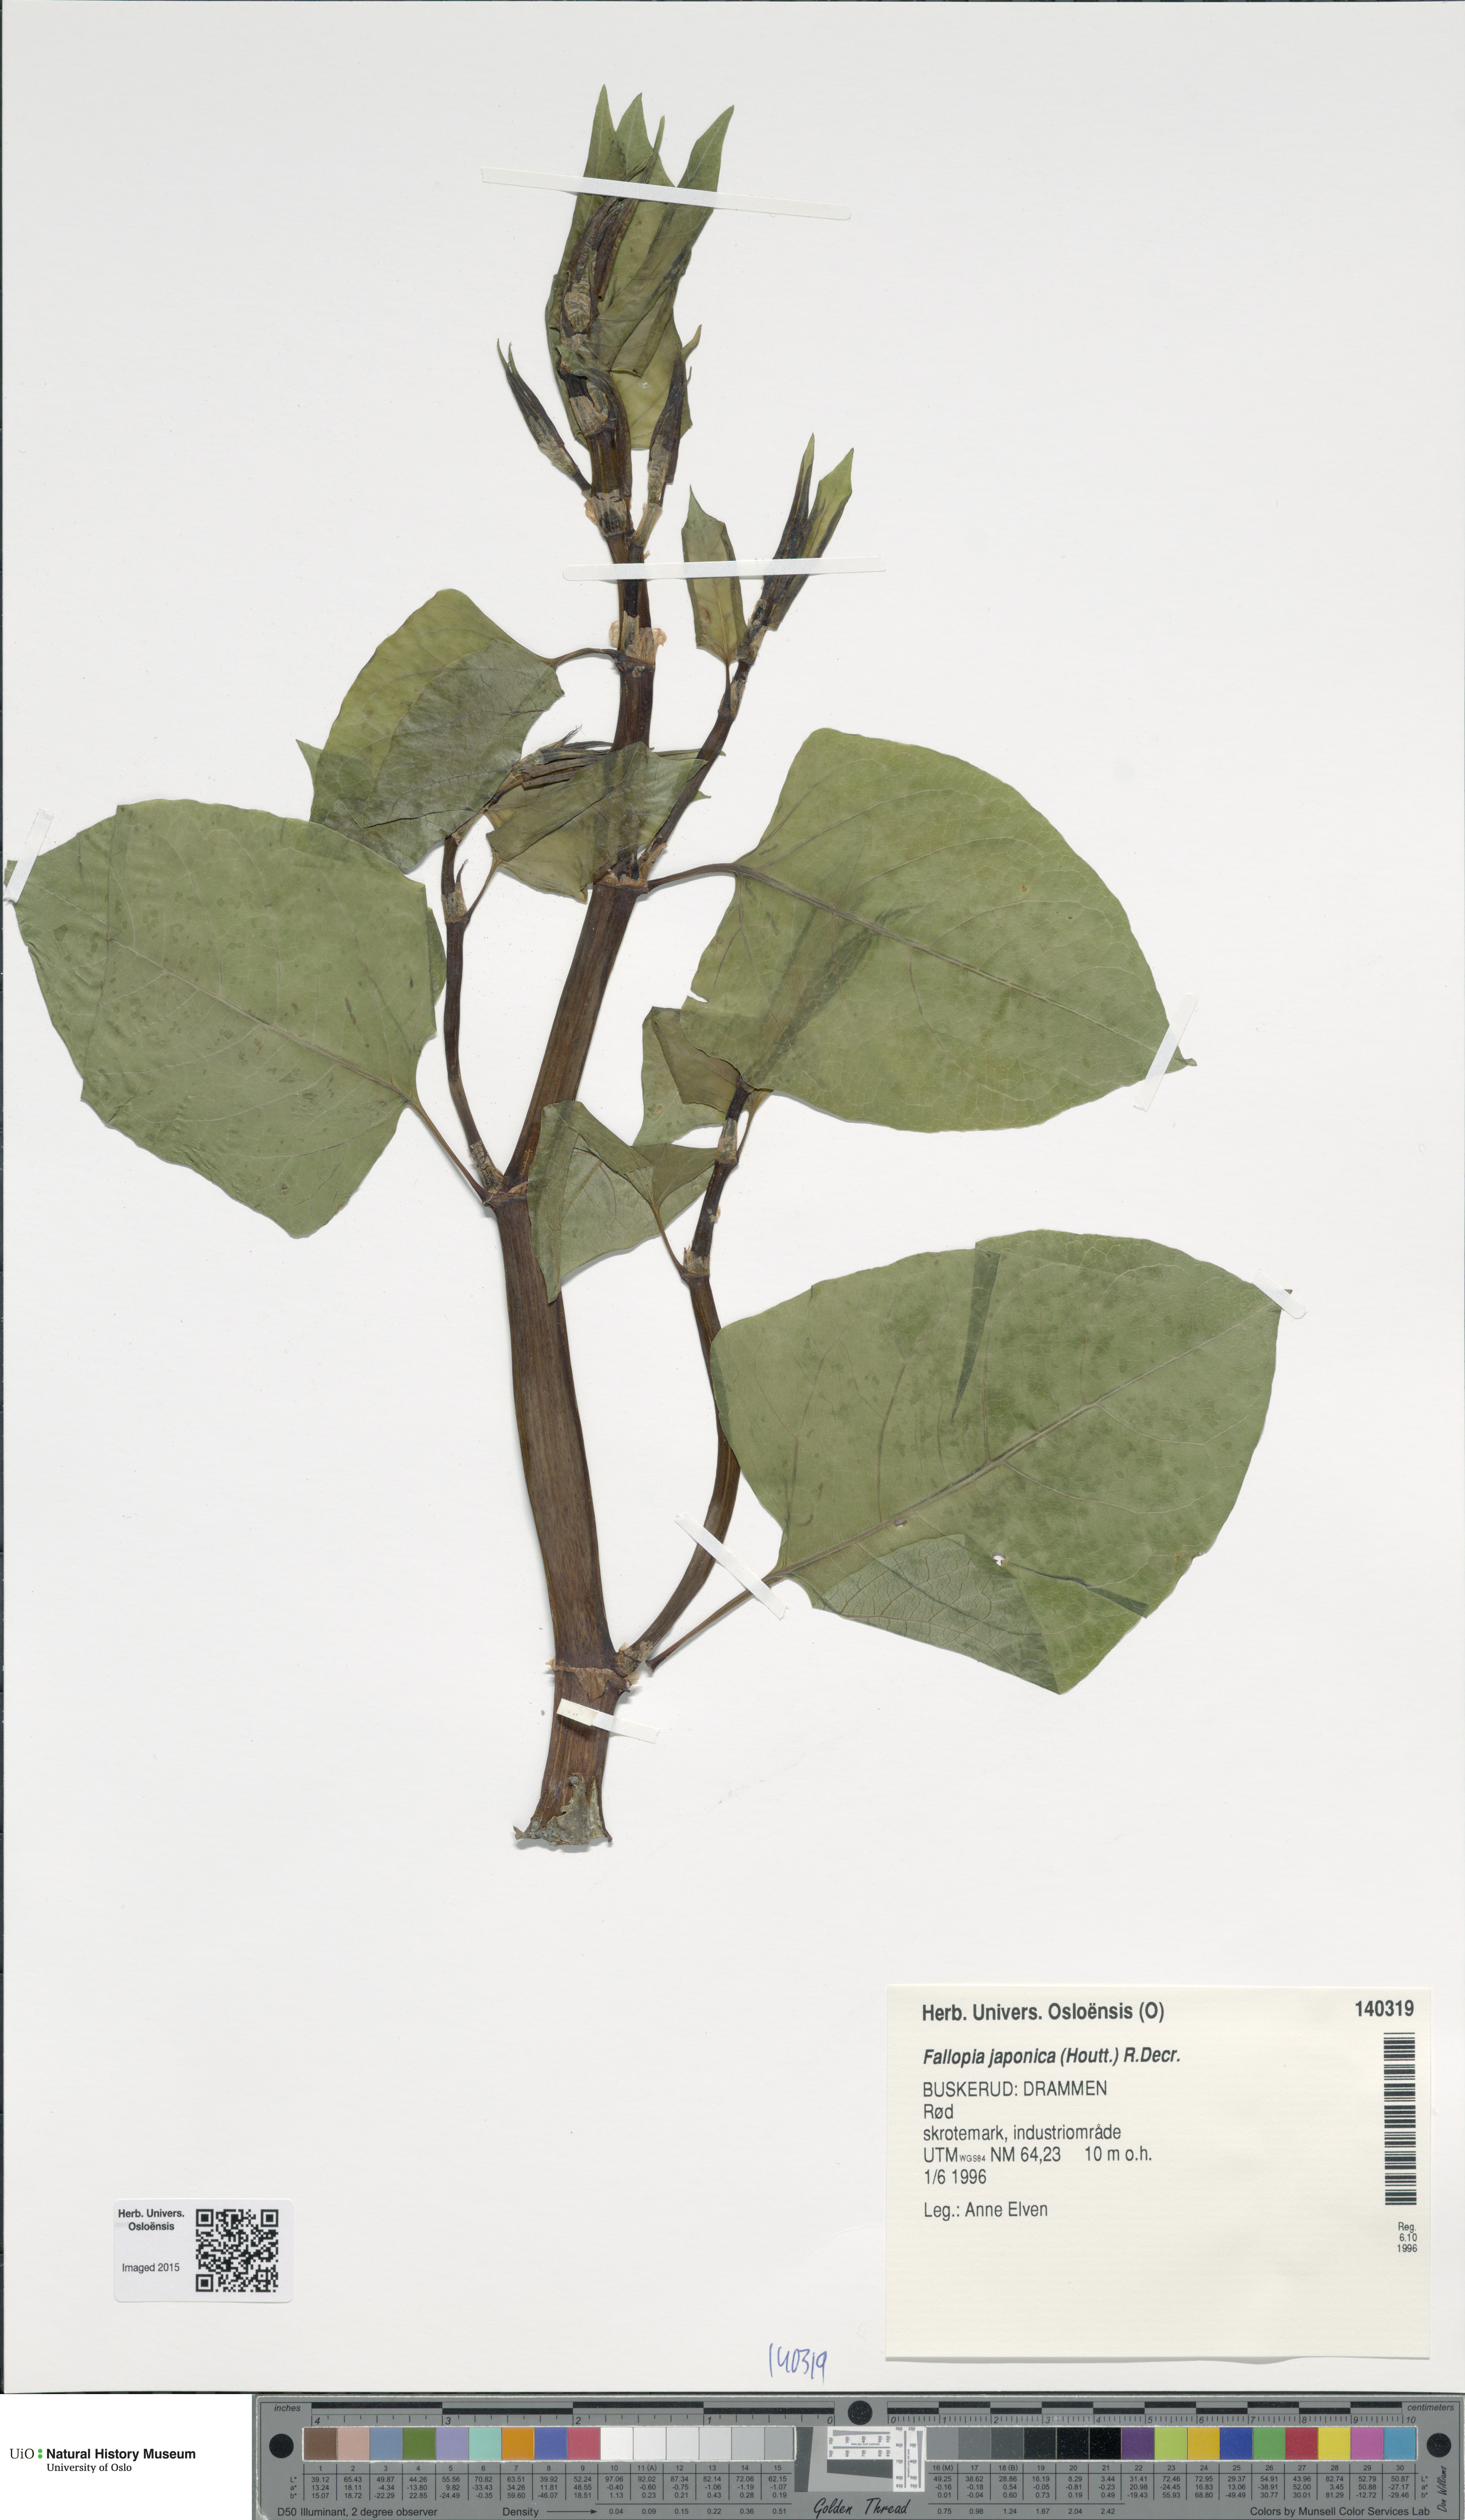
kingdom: Plantae
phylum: Tracheophyta
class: Magnoliopsida
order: Caryophyllales
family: Polygonaceae
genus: Reynoutria
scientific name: Reynoutria japonica
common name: Japanese knotweed
